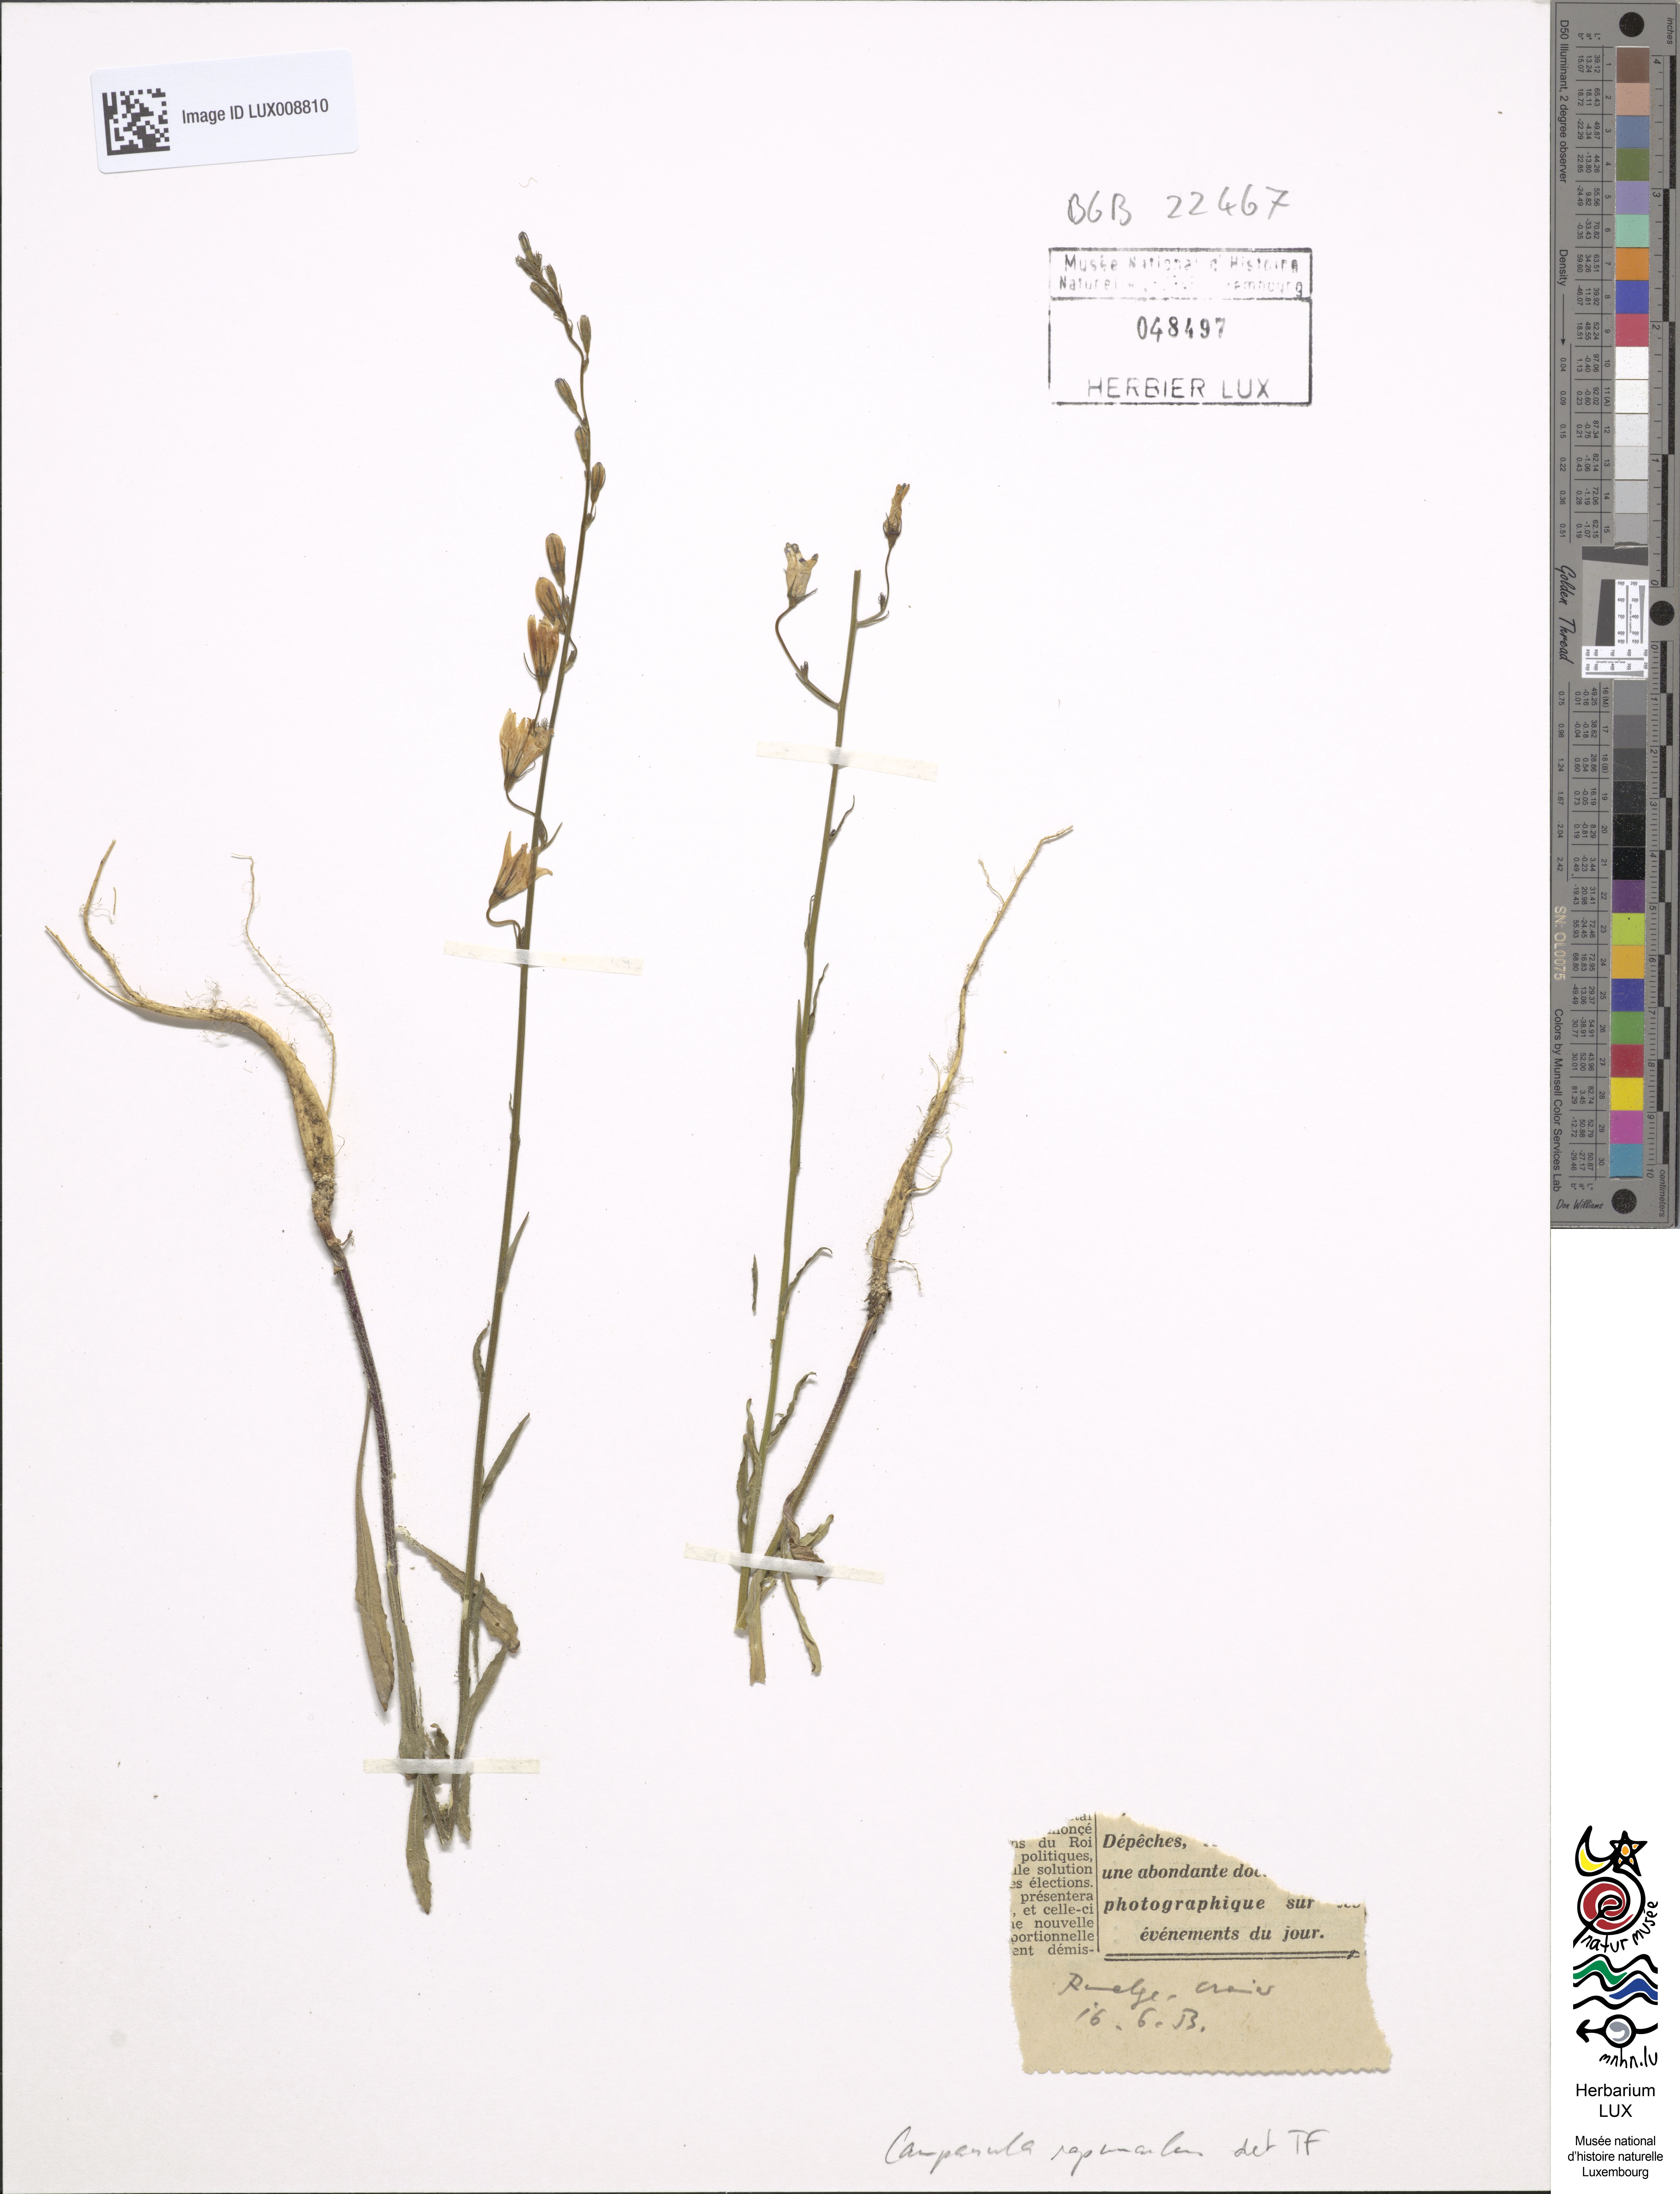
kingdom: Plantae
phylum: Tracheophyta
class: Magnoliopsida
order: Asterales
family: Campanulaceae
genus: Campanula
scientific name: Campanula rapunculus
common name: Rampion bellflower
